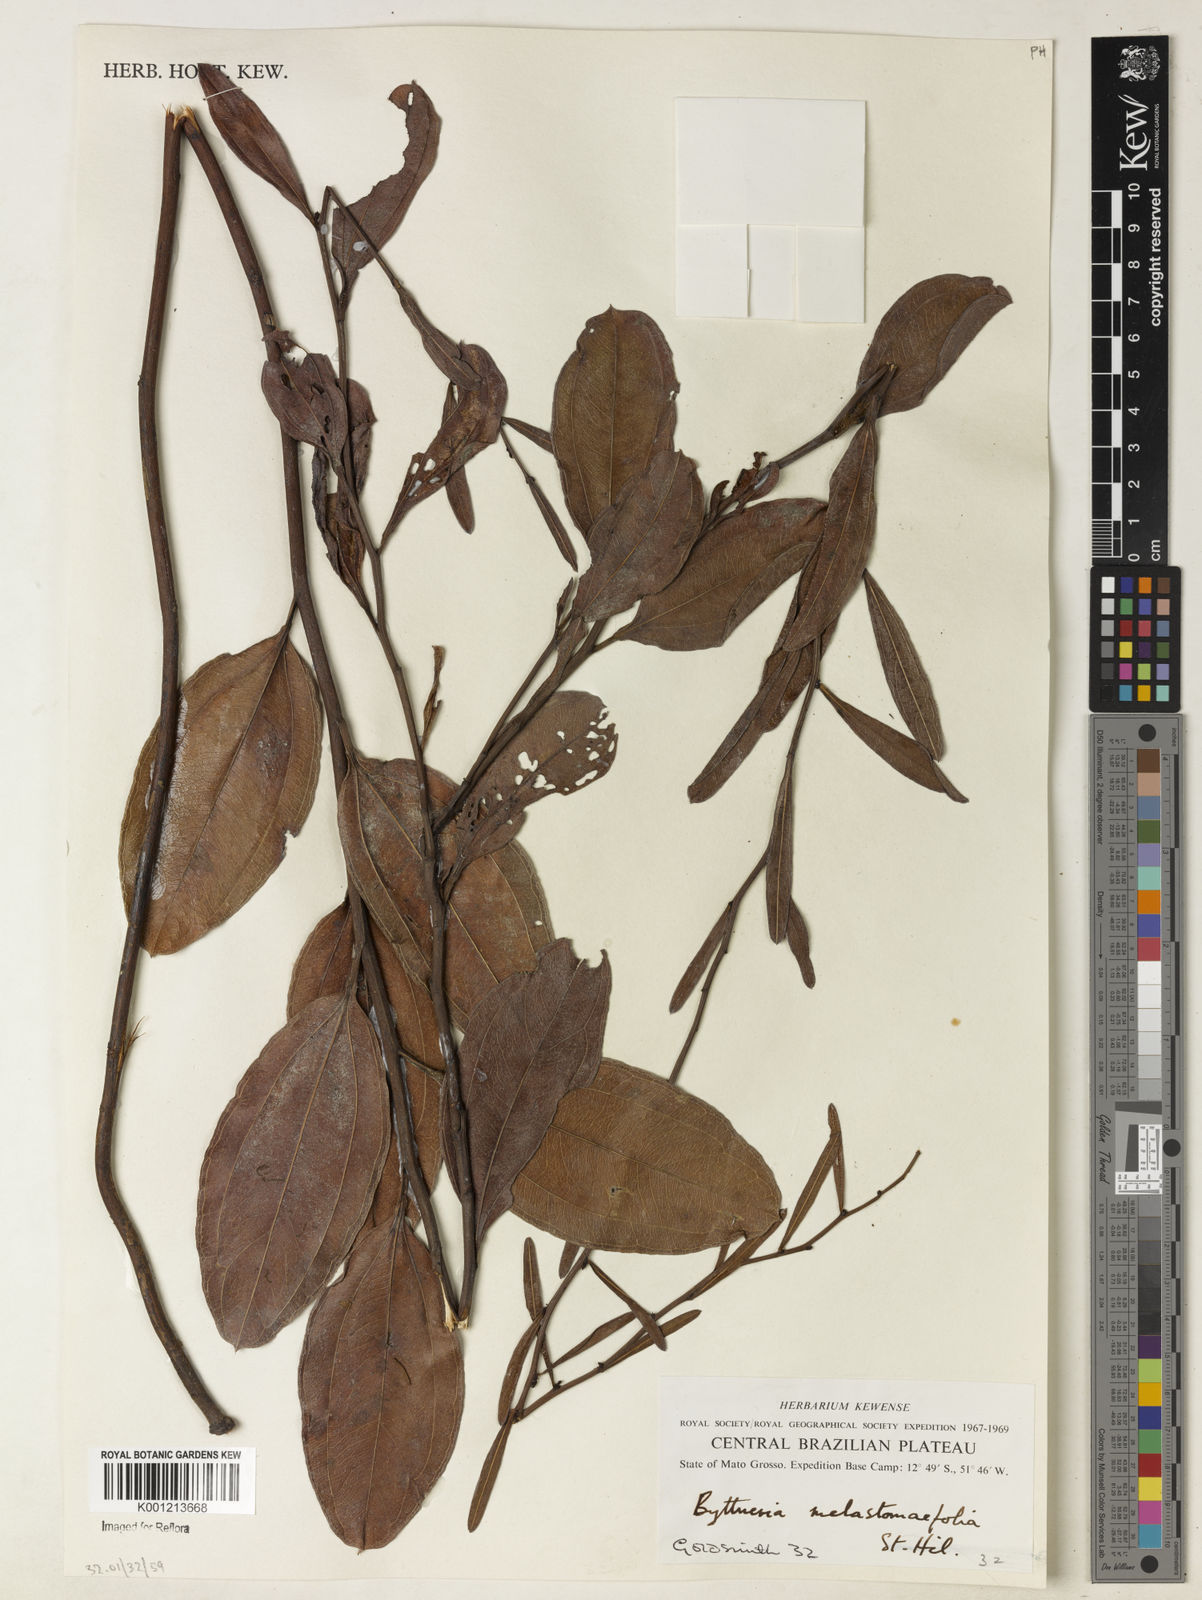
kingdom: Plantae
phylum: Tracheophyta
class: Magnoliopsida
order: Malvales
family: Malvaceae
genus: Byttneria
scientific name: Byttneria melastomifolia
